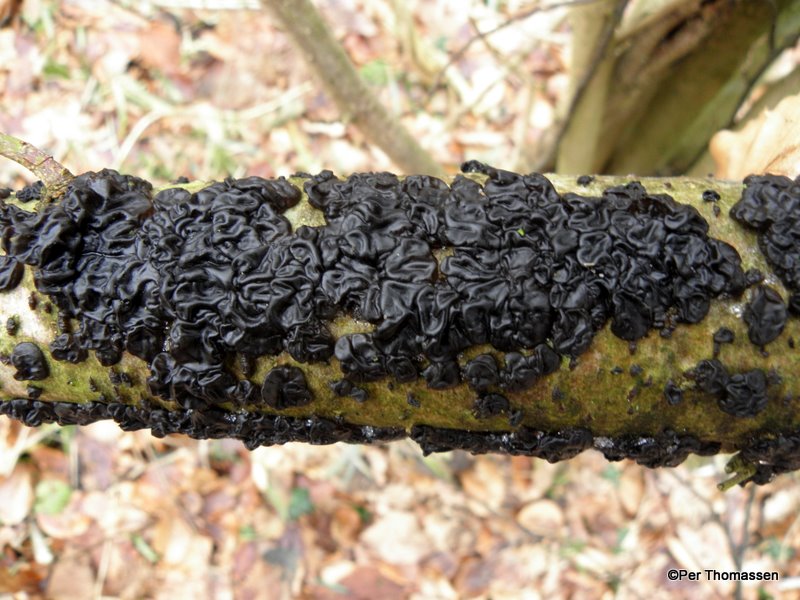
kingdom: Fungi
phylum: Basidiomycota
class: Agaricomycetes
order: Auriculariales
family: Auriculariaceae
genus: Exidia
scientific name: Exidia nigricans
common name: almindelig bævretop
